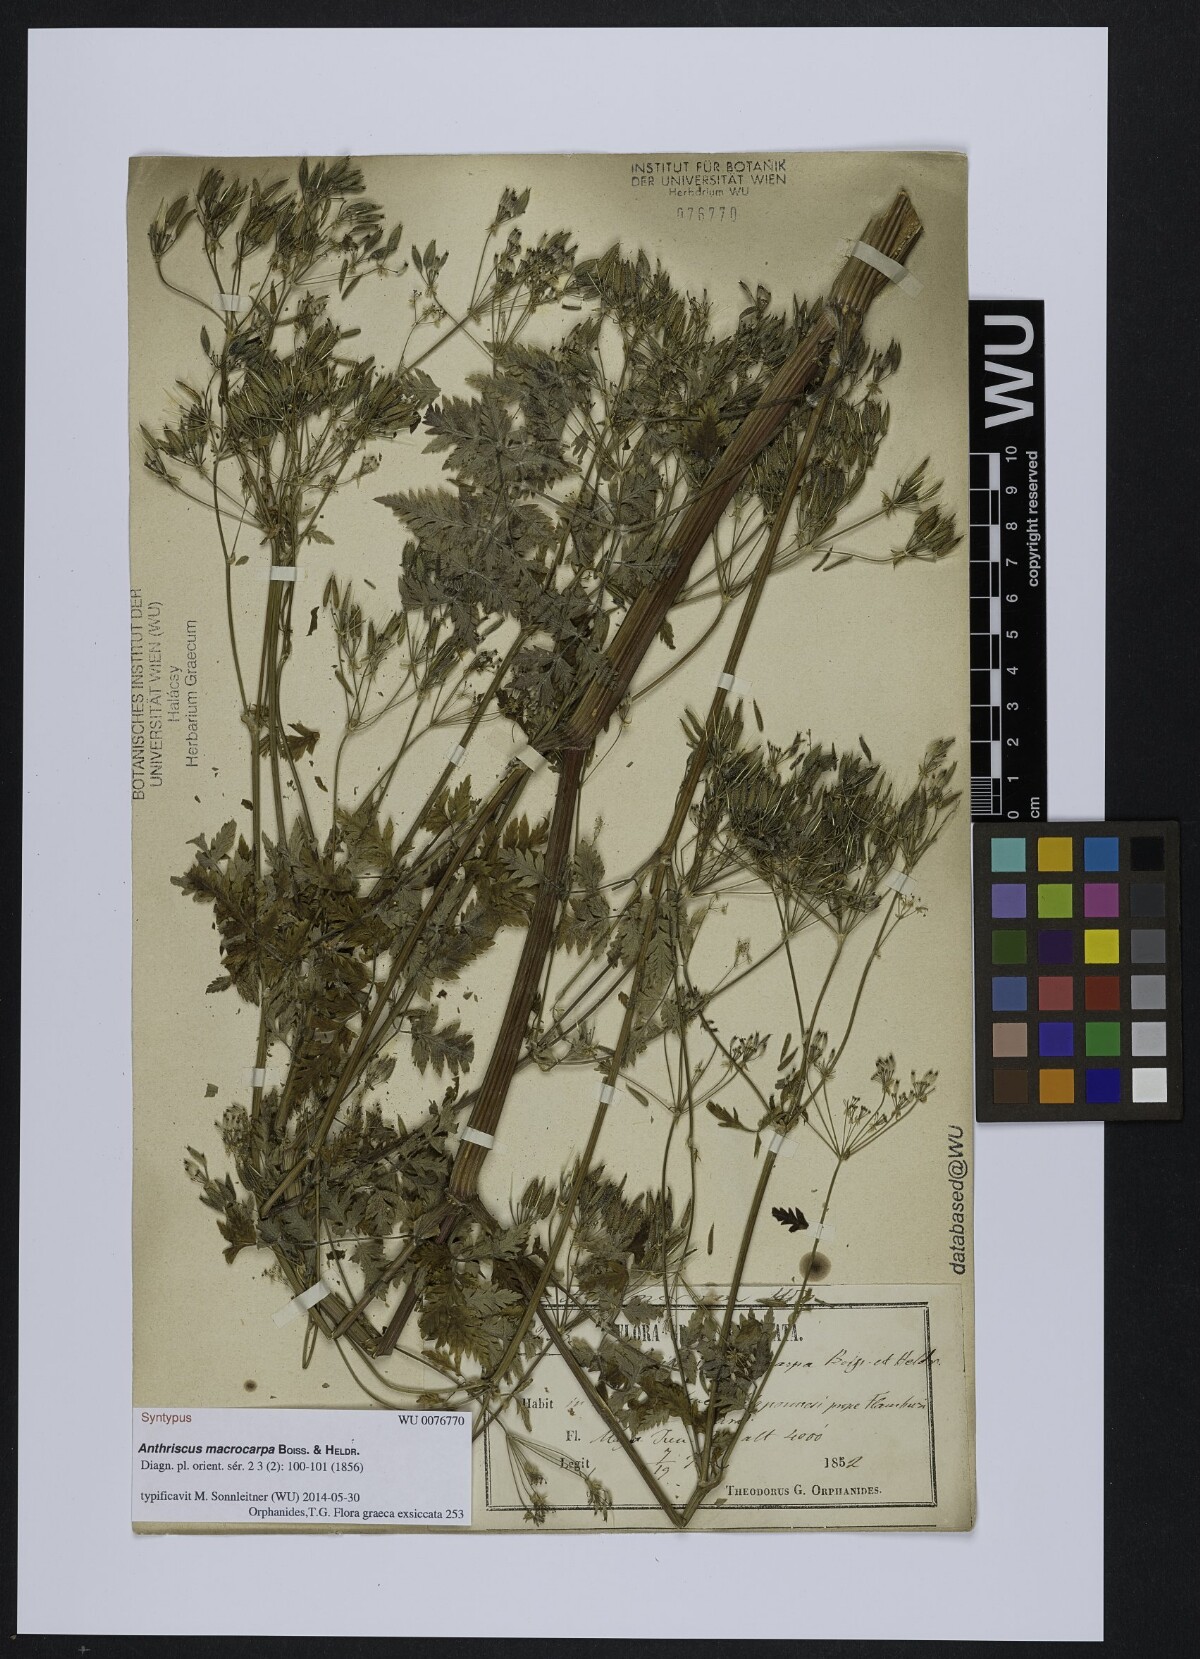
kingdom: Plantae
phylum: Tracheophyta
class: Magnoliopsida
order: Apiales
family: Apiaceae
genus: Anthriscus
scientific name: Anthriscus sylvestris
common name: Cow parsley
